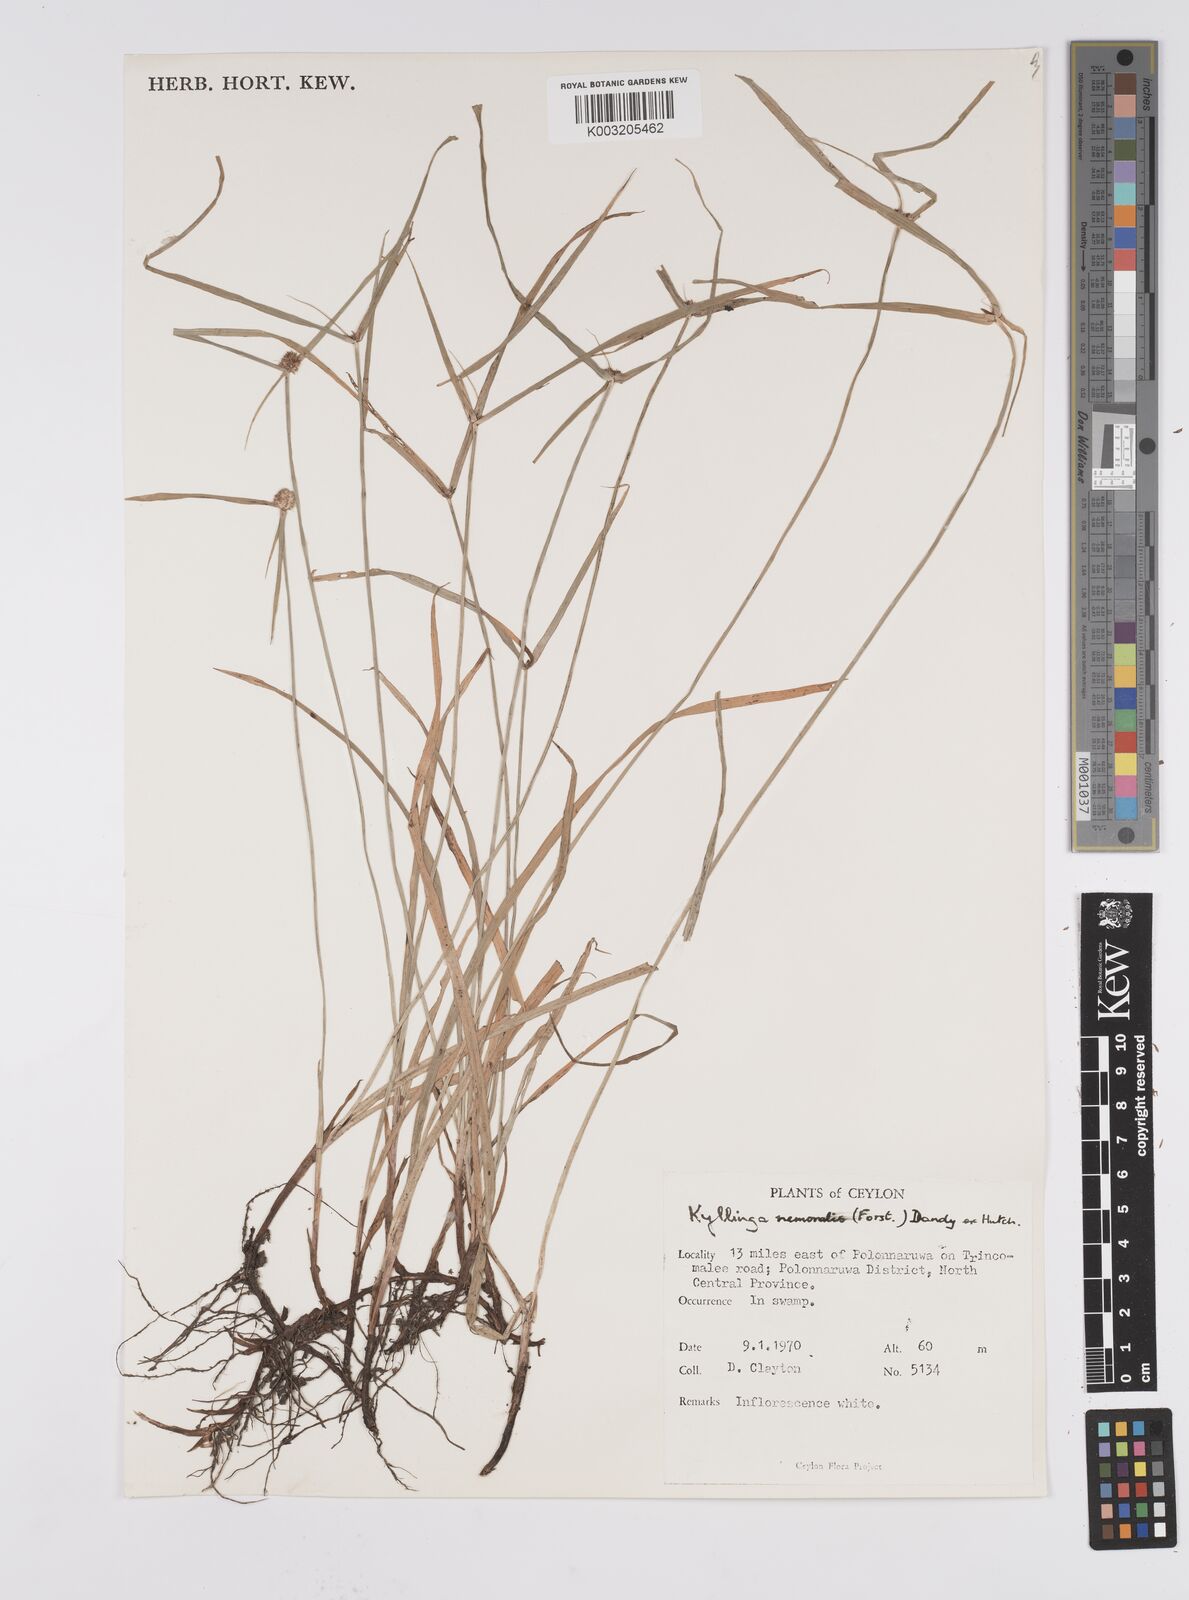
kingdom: Plantae
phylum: Tracheophyta
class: Liliopsida
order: Poales
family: Cyperaceae
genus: Cyperus
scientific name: Cyperus nemoralis
